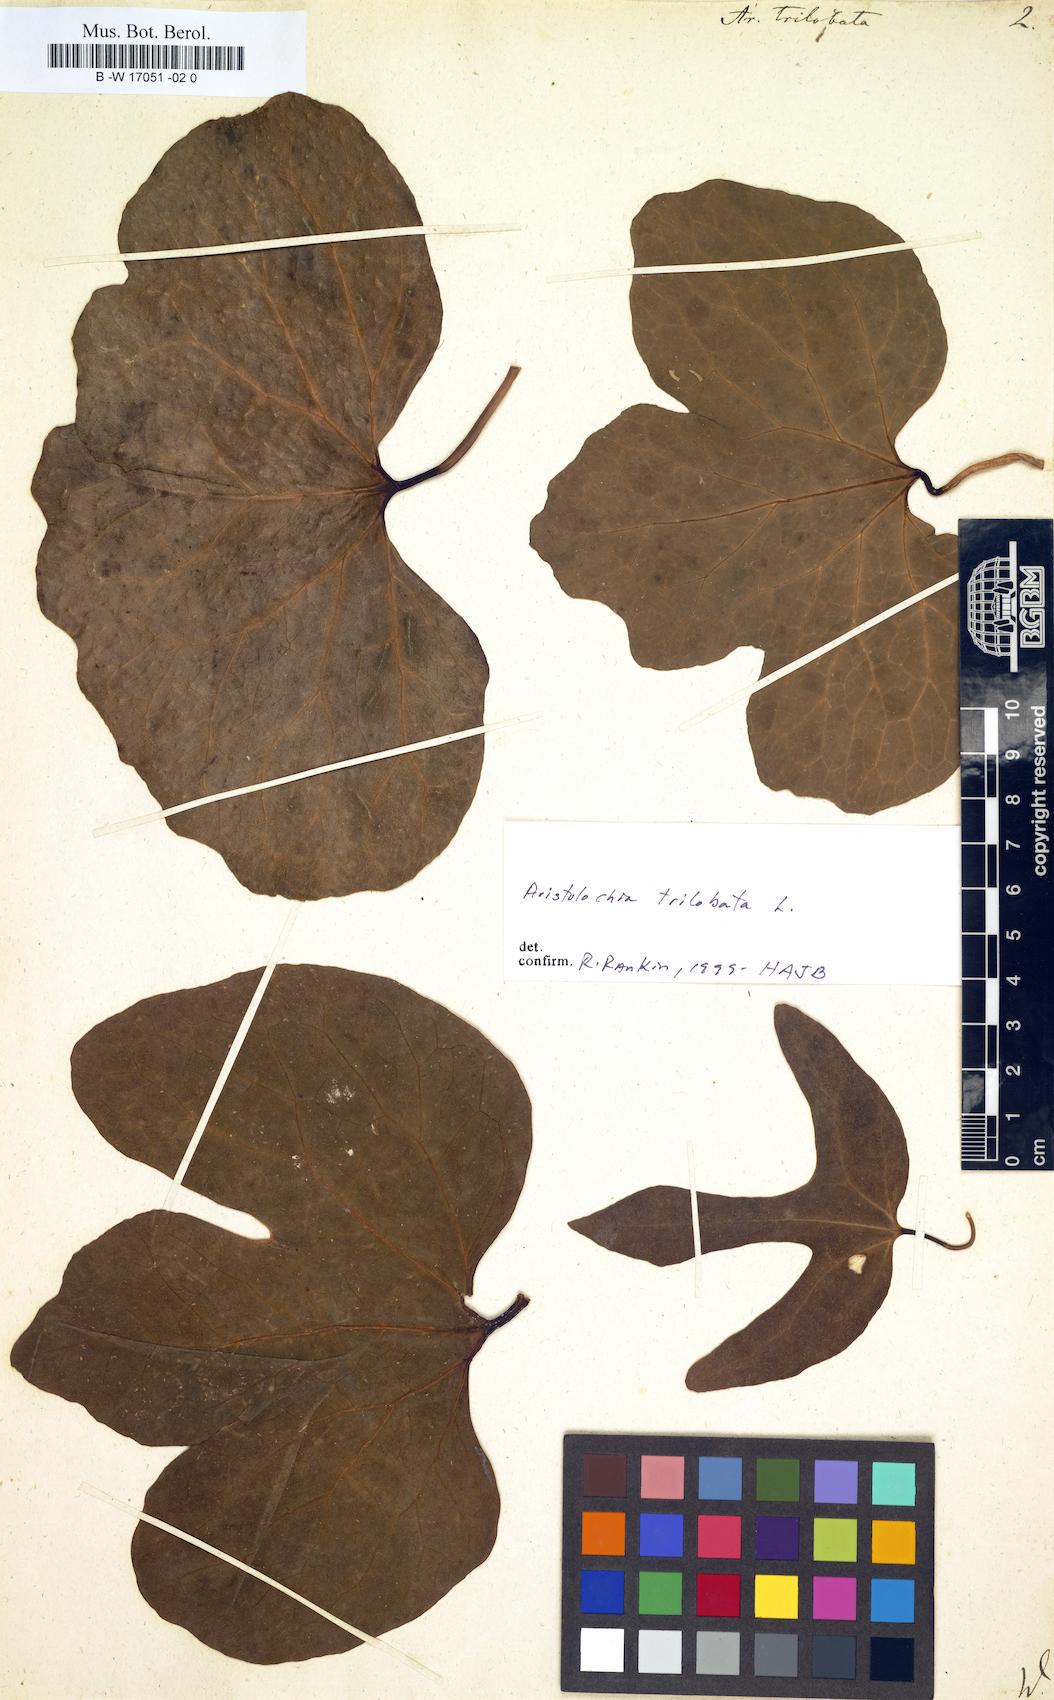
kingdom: Plantae
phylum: Tracheophyta
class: Magnoliopsida
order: Piperales
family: Aristolochiaceae
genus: Aristolochia
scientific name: Aristolochia trilobata
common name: Dutchman's pipe
